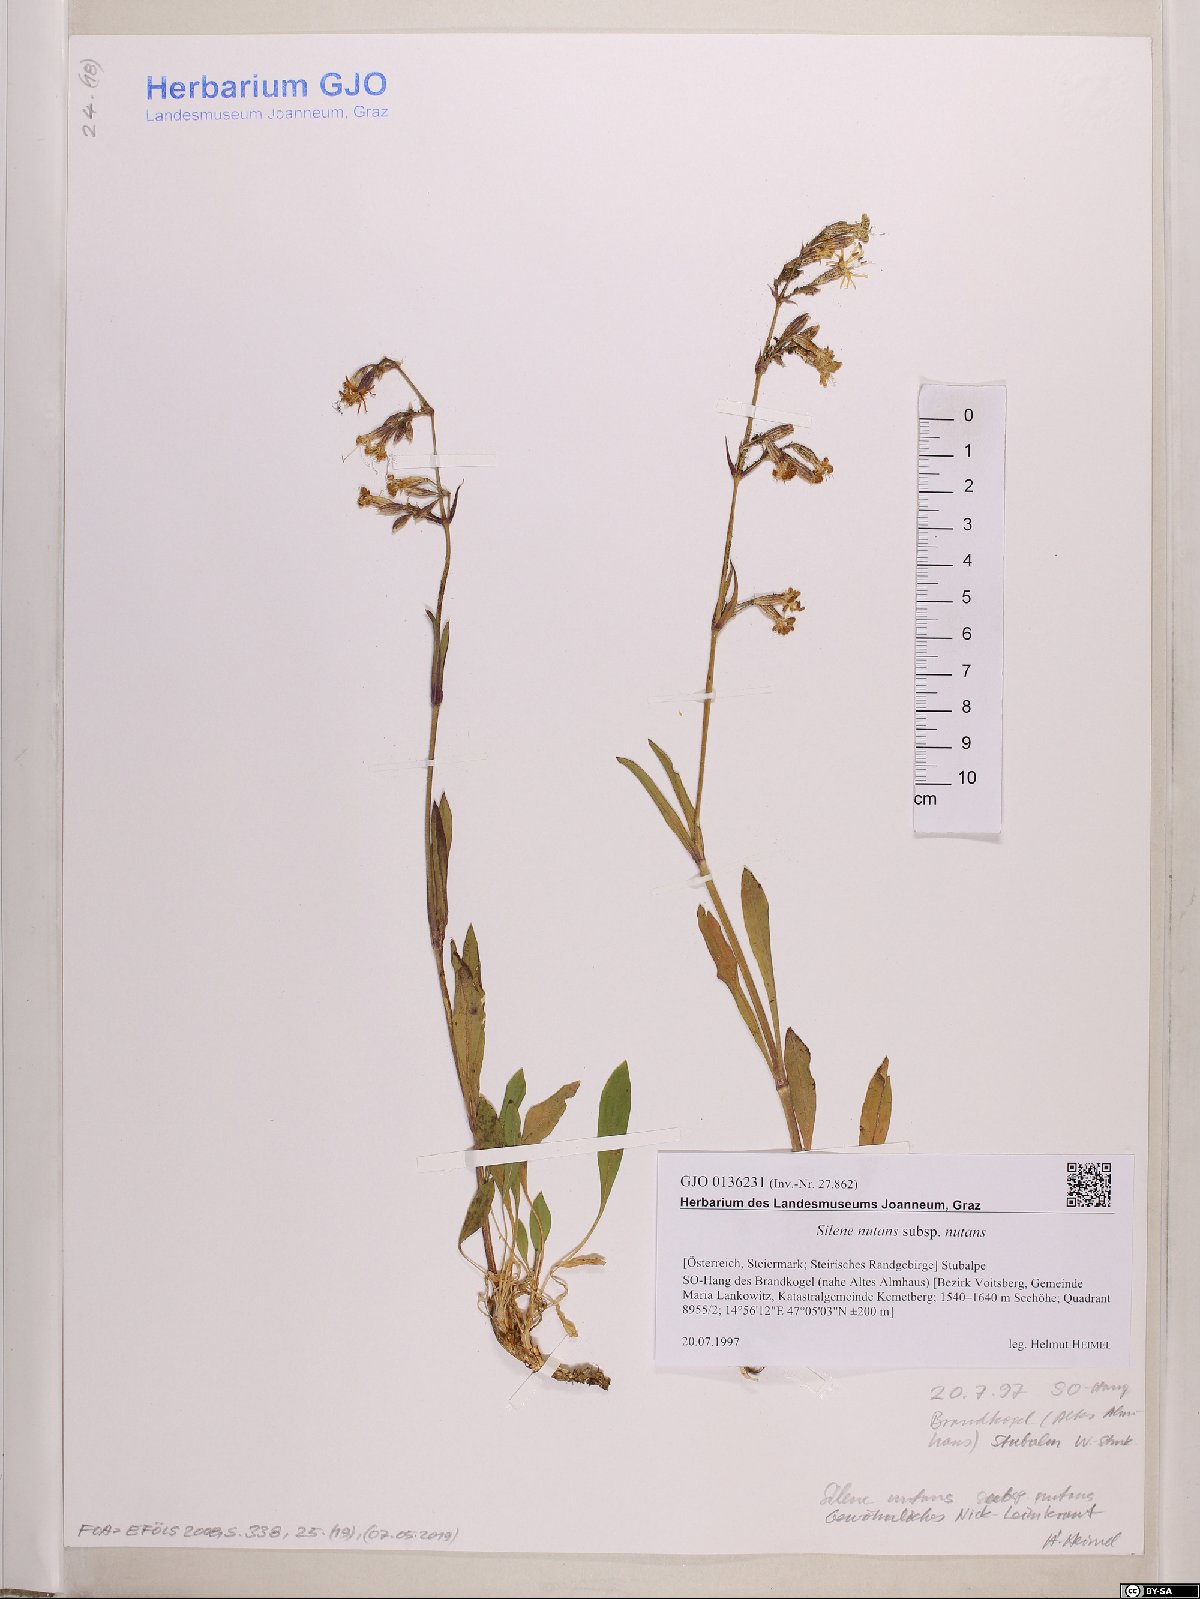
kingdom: Plantae
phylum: Tracheophyta
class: Magnoliopsida
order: Caryophyllales
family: Caryophyllaceae
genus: Silene
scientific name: Silene nutans
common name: Nottingham catchfly
